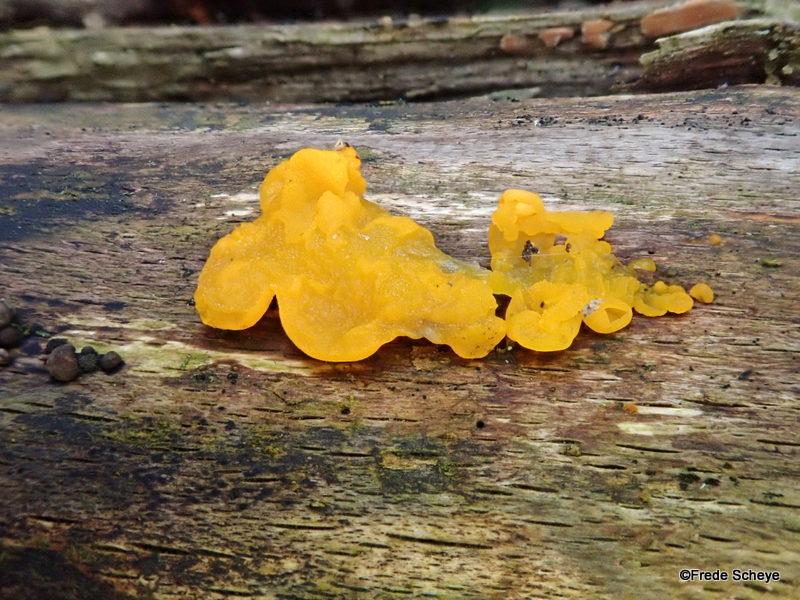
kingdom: Fungi
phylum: Basidiomycota
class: Tremellomycetes
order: Tremellales
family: Tremellaceae
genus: Tremella
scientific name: Tremella mesenterica
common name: gul bævresvamp
